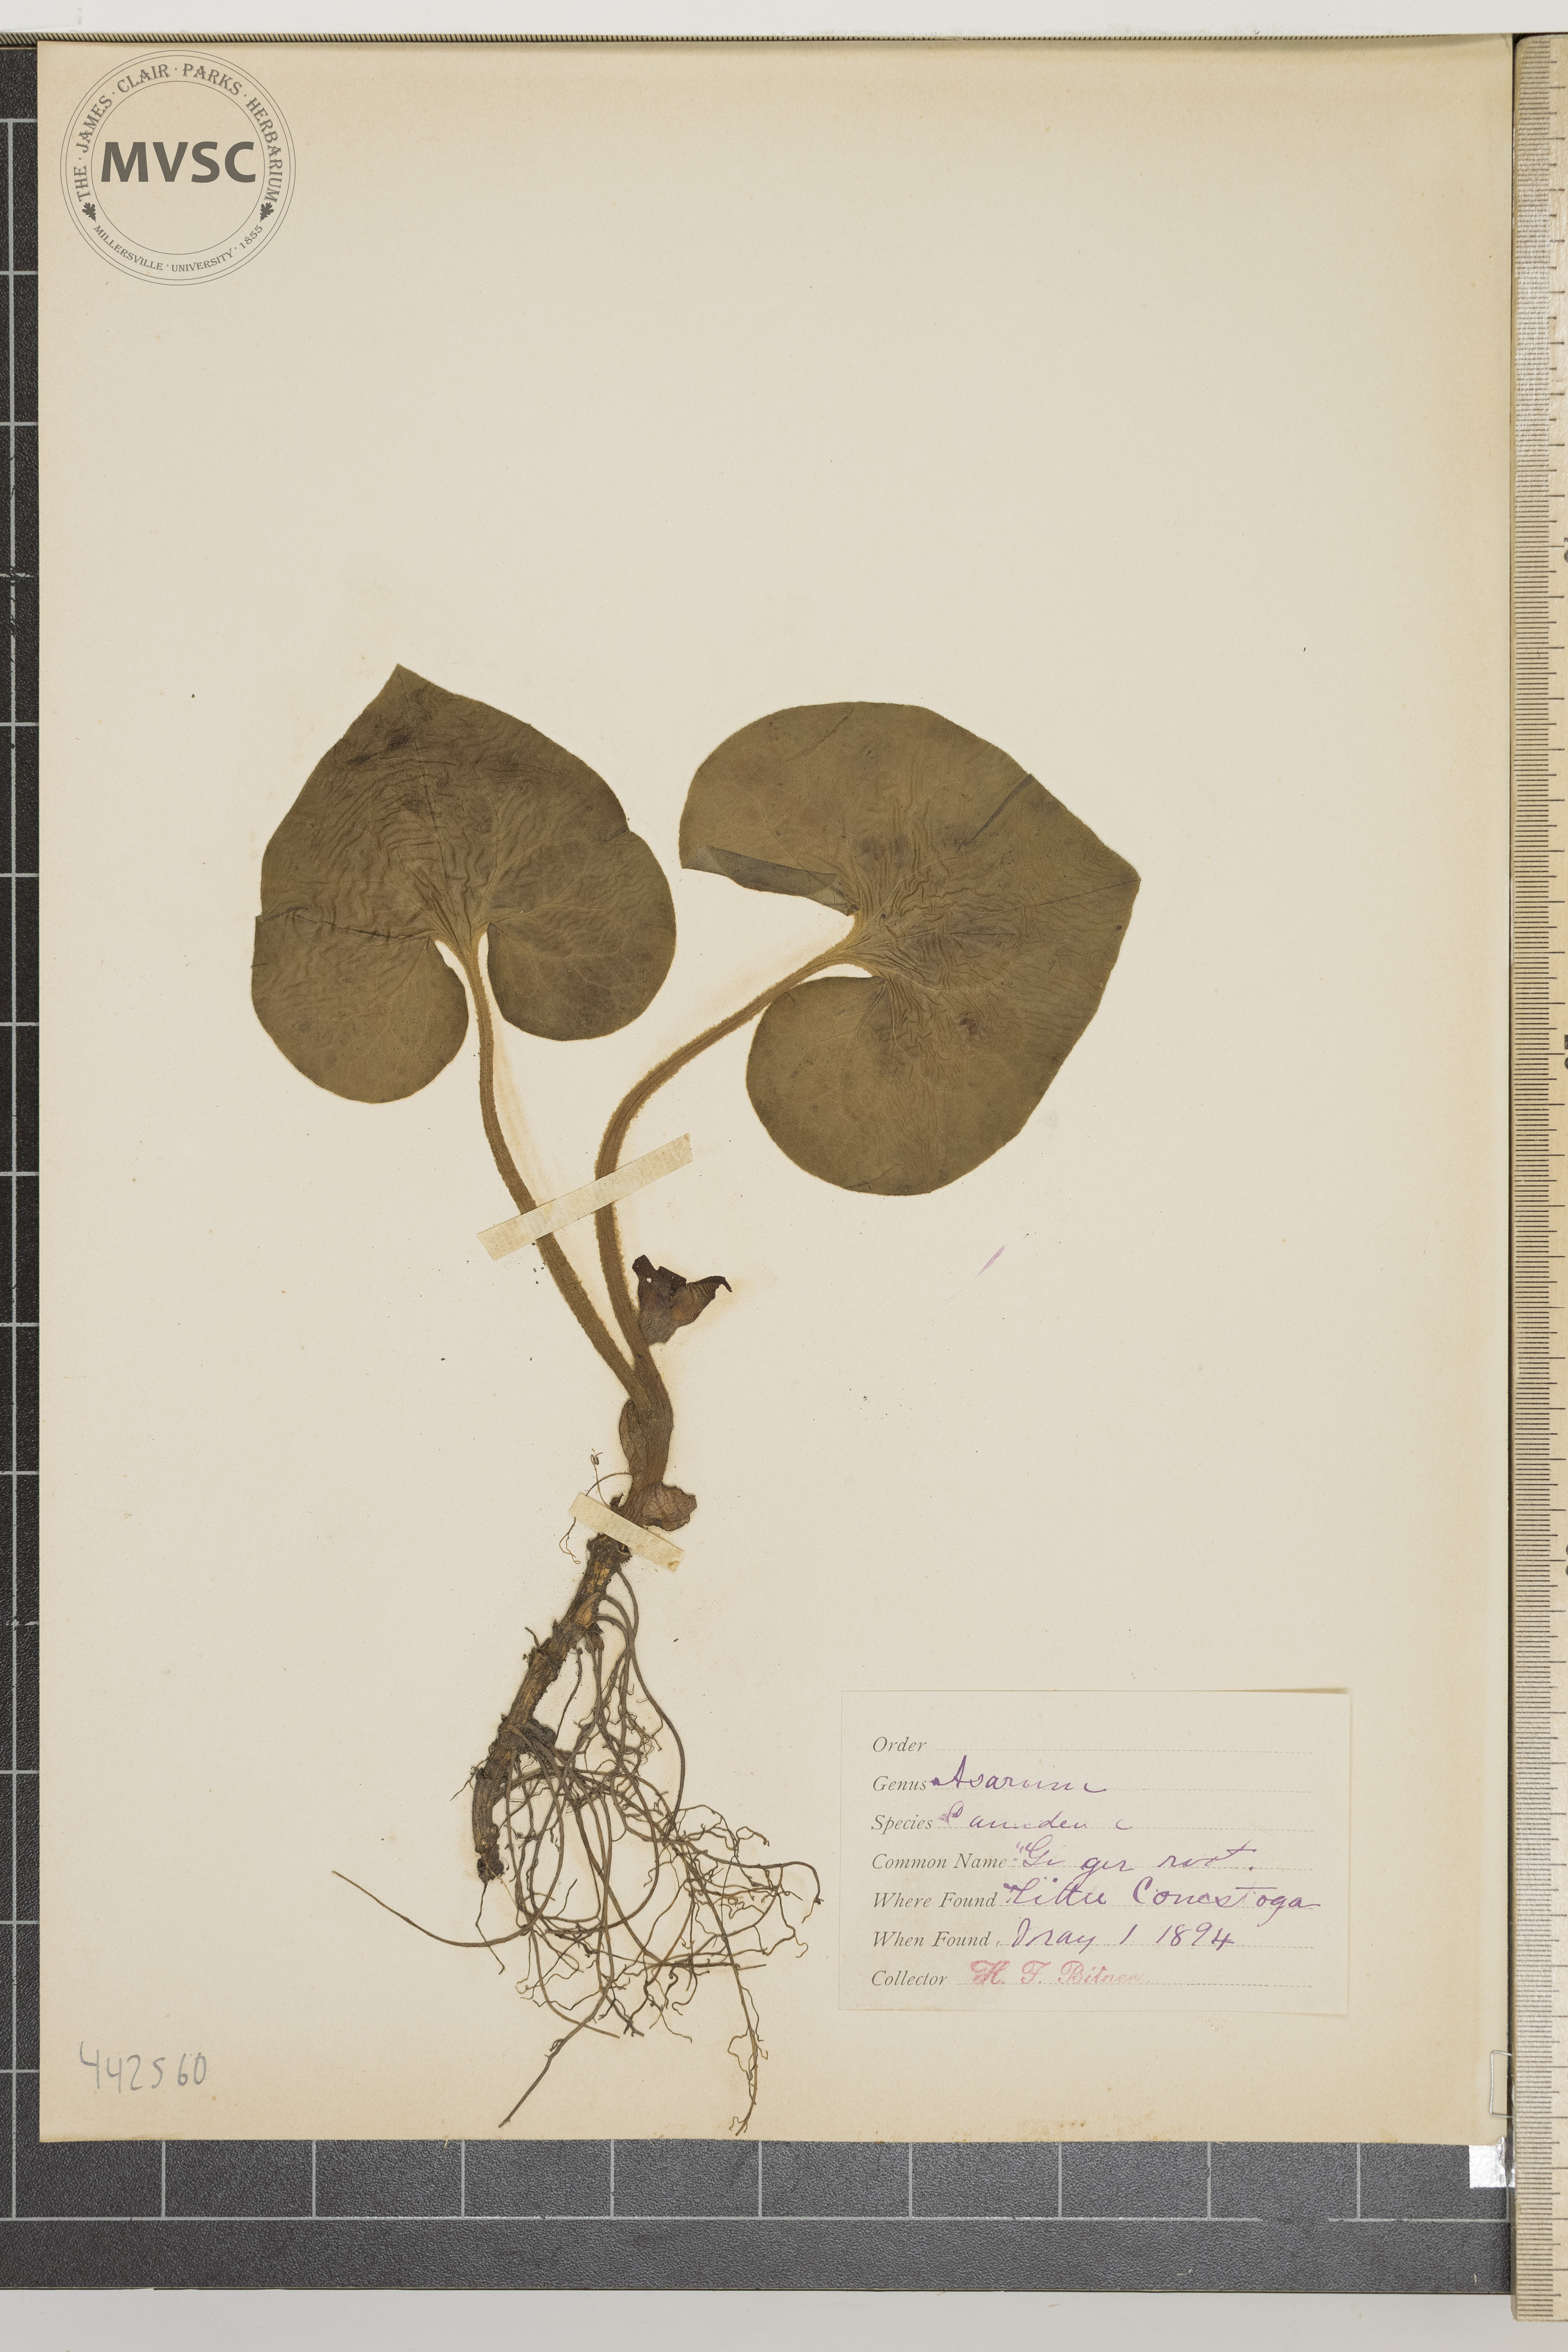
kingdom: Plantae
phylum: Tracheophyta
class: Magnoliopsida
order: Piperales
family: Aristolochiaceae
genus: Asarum
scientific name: Asarum canadense
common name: Ginger root
